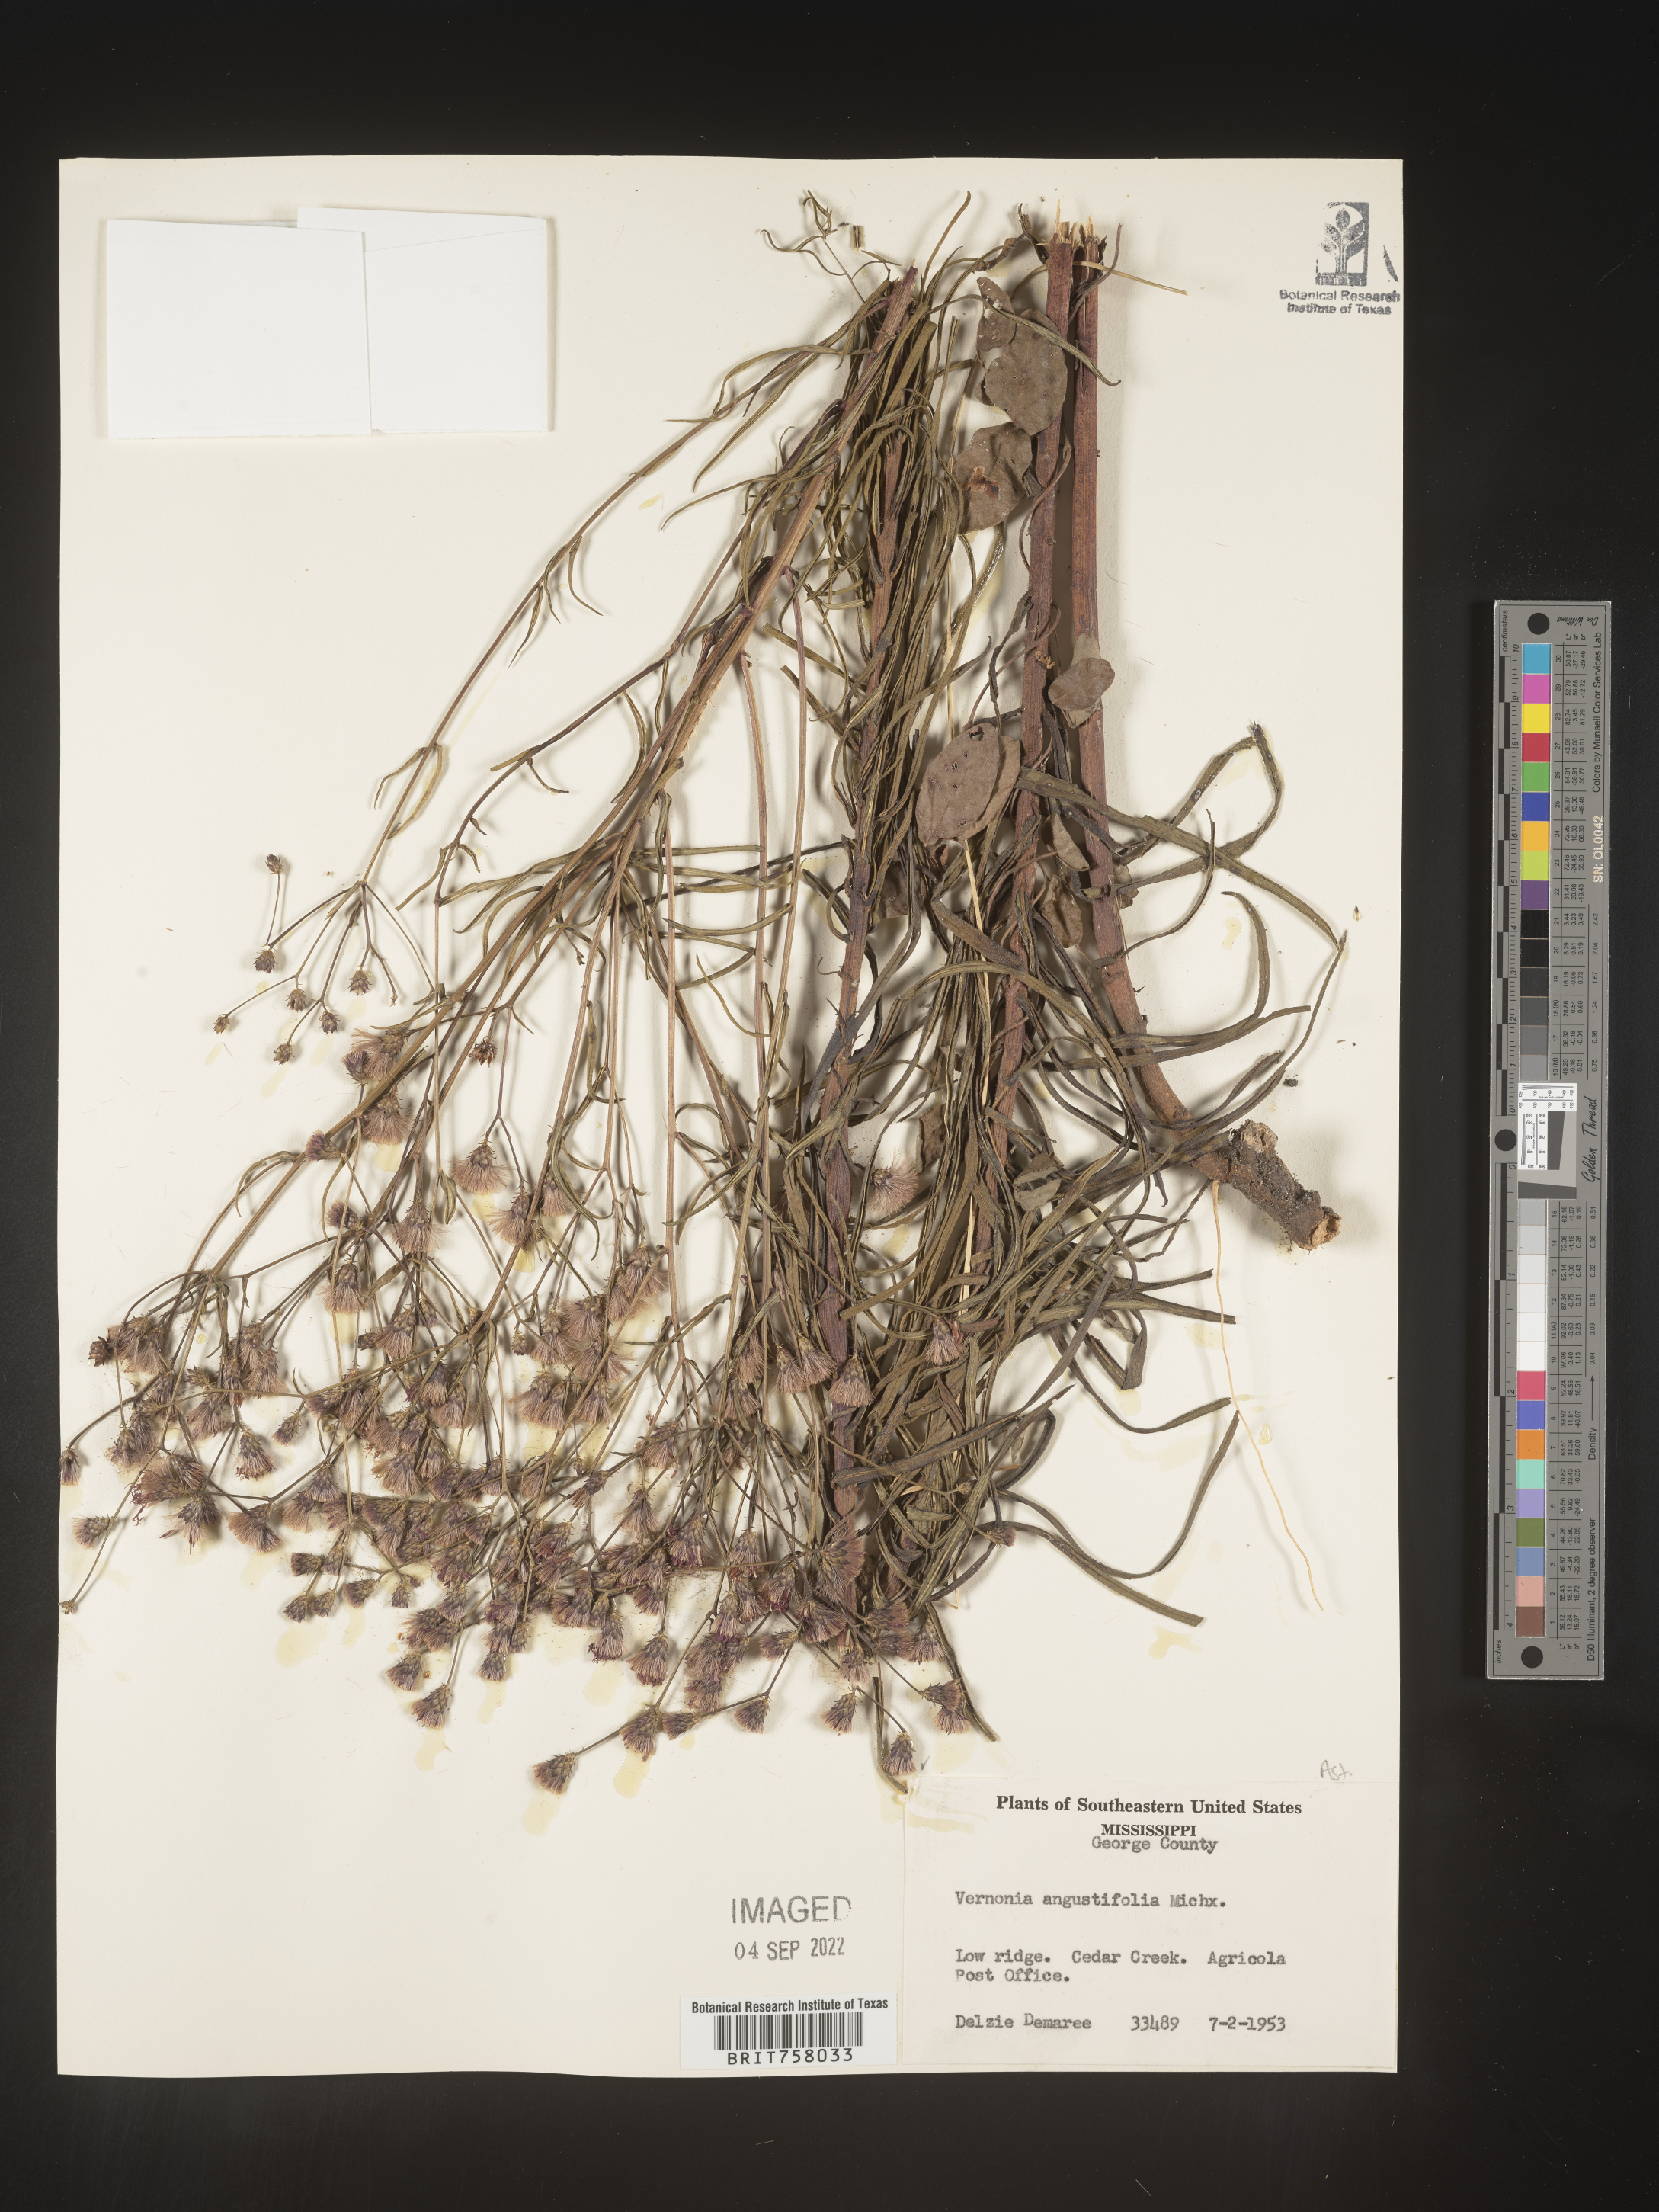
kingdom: Plantae
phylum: Tracheophyta
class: Magnoliopsida
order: Asterales
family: Asteraceae
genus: Vernonia
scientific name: Vernonia angustifolia
